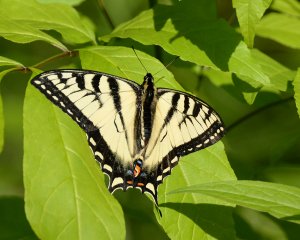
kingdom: Animalia
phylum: Arthropoda
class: Insecta
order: Lepidoptera
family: Papilionidae
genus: Pterourus
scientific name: Pterourus canadensis
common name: Canadian Tiger Swallowtail
